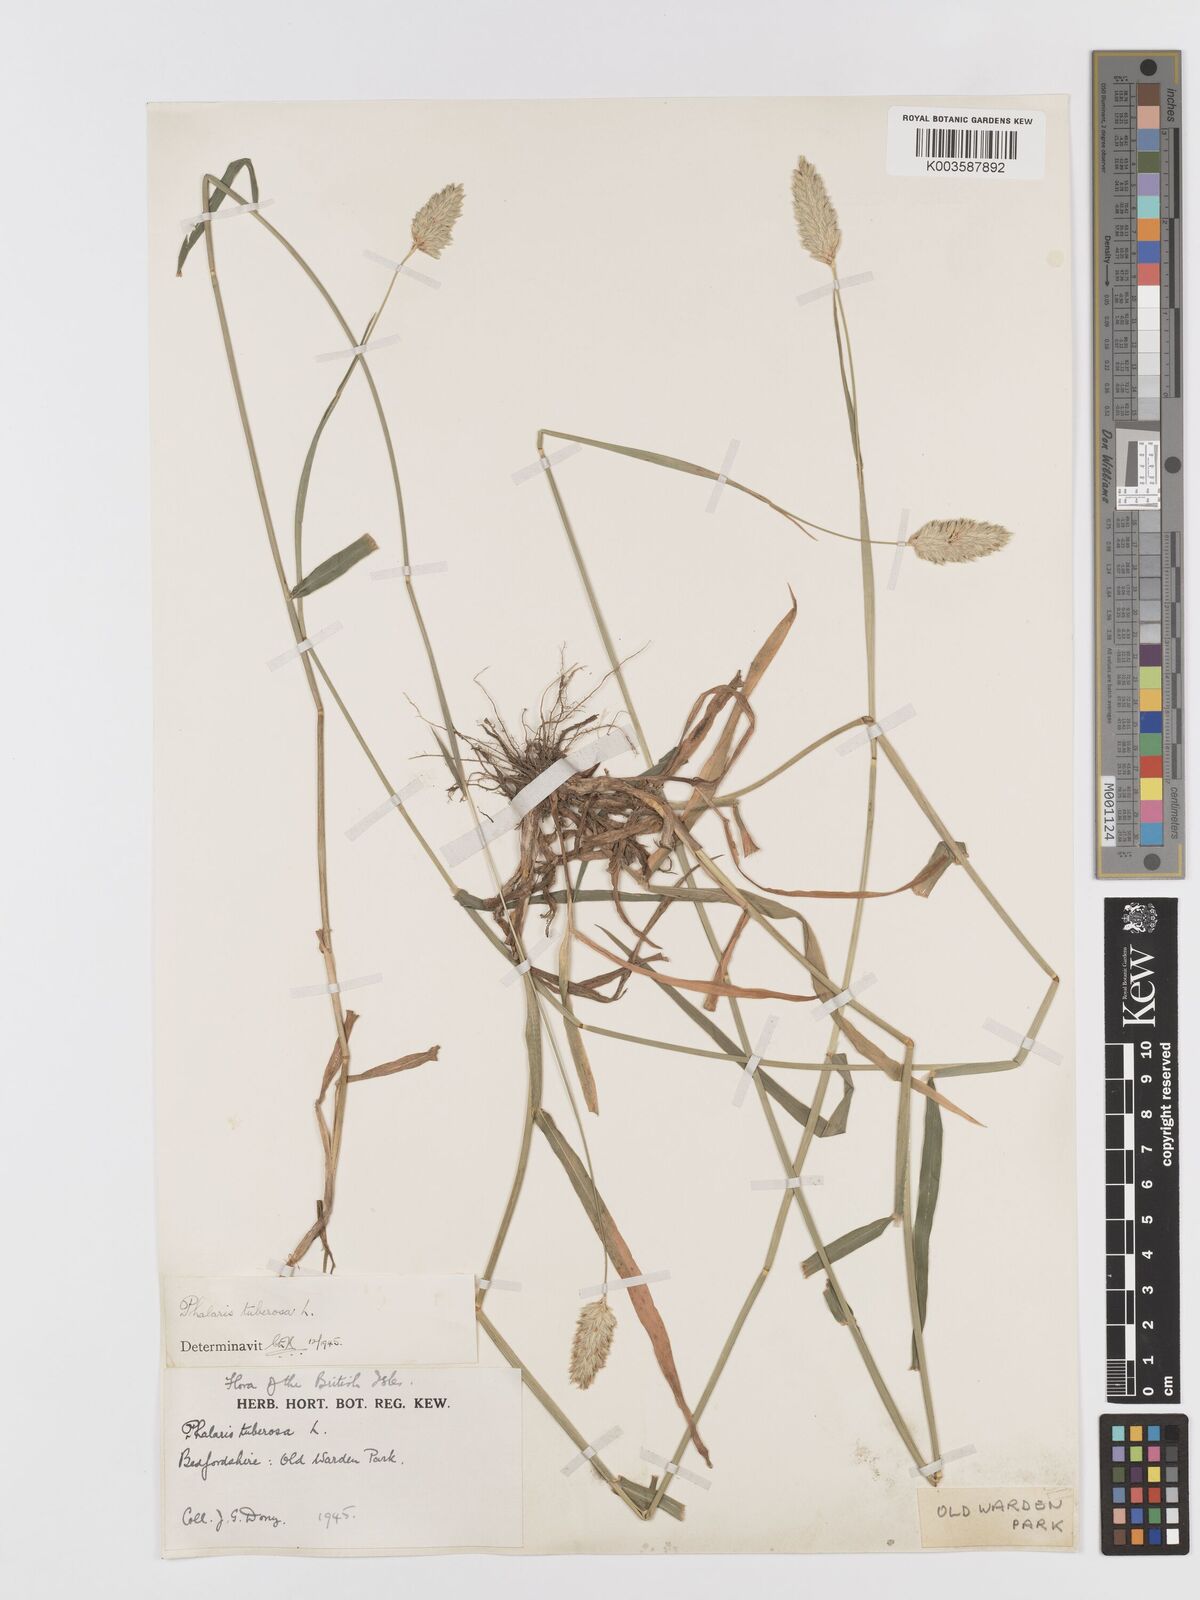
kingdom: Plantae
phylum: Tracheophyta
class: Liliopsida
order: Poales
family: Poaceae
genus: Phalaris
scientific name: Phalaris
